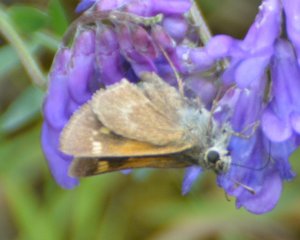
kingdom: Animalia
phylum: Arthropoda
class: Insecta
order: Lepidoptera
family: Hesperiidae
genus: Polites
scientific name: Polites themistocles
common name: Tawny-edged Skipper
